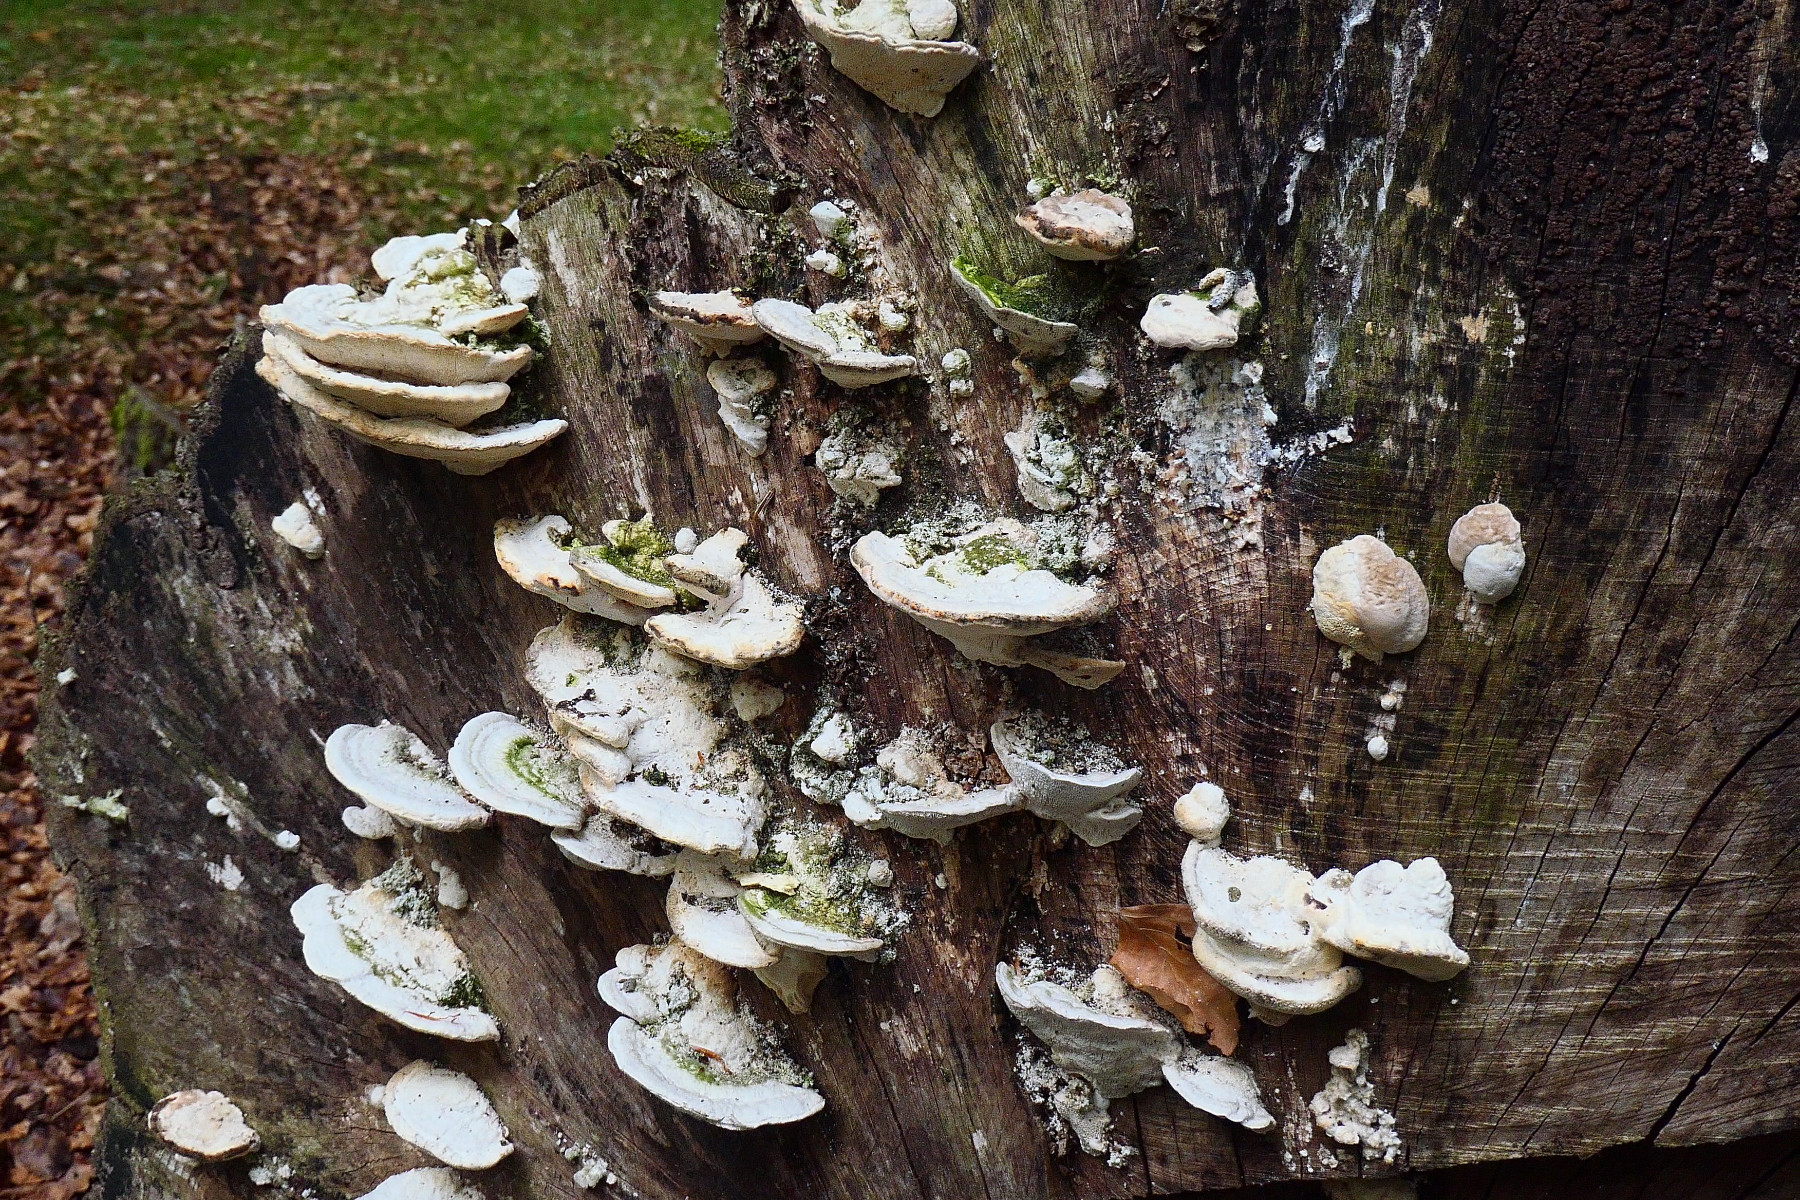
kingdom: Fungi
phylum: Basidiomycota
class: Agaricomycetes
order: Polyporales
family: Polyporaceae
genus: Trametes
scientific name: Trametes gibbosa
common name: puklet læderporesvamp
